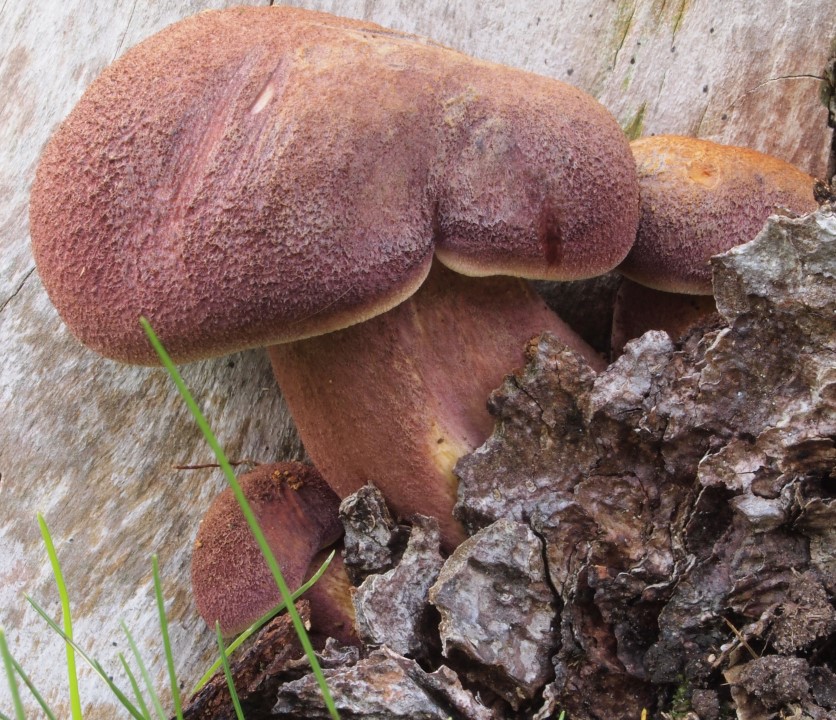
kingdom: Fungi
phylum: Basidiomycota
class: Agaricomycetes
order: Agaricales
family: Tricholomataceae
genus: Tricholomopsis
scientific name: Tricholomopsis rutilans
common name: purpur-væbnerhat
